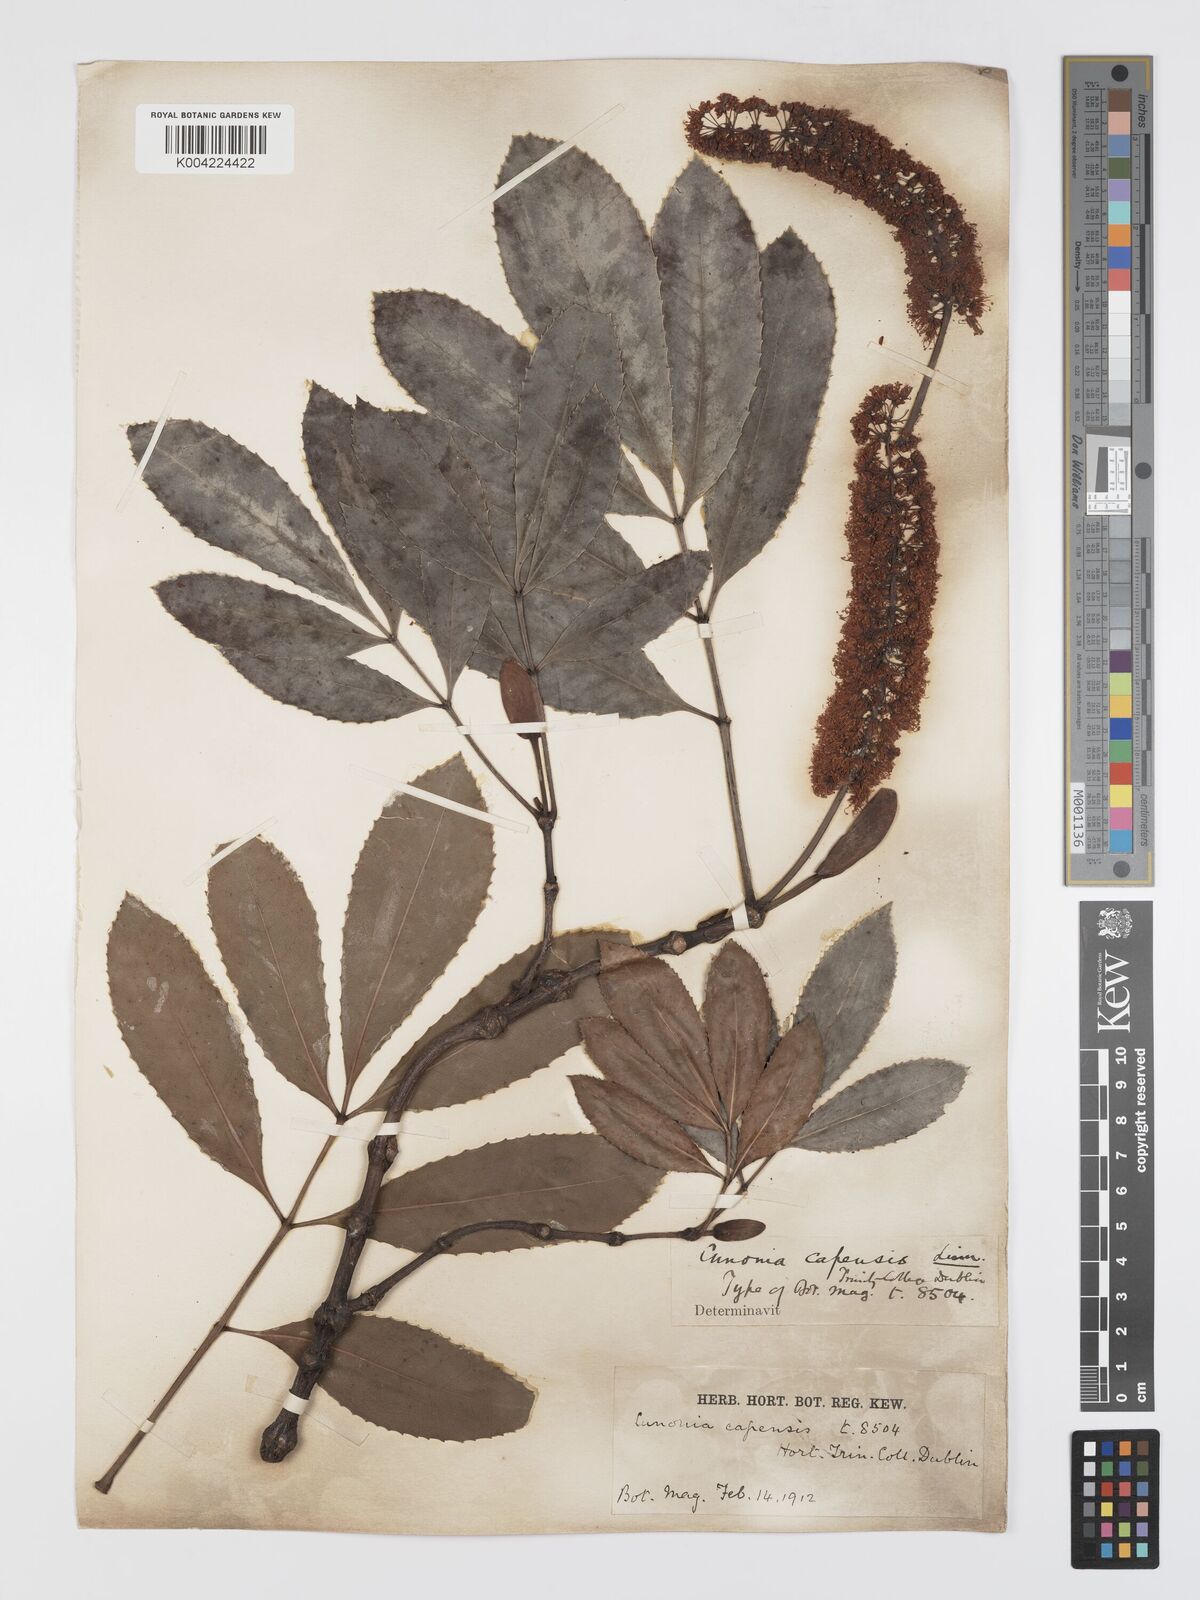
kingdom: Plantae
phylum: Tracheophyta
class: Magnoliopsida
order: Oxalidales
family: Cunoniaceae
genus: Cunonia
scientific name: Cunonia capensis
